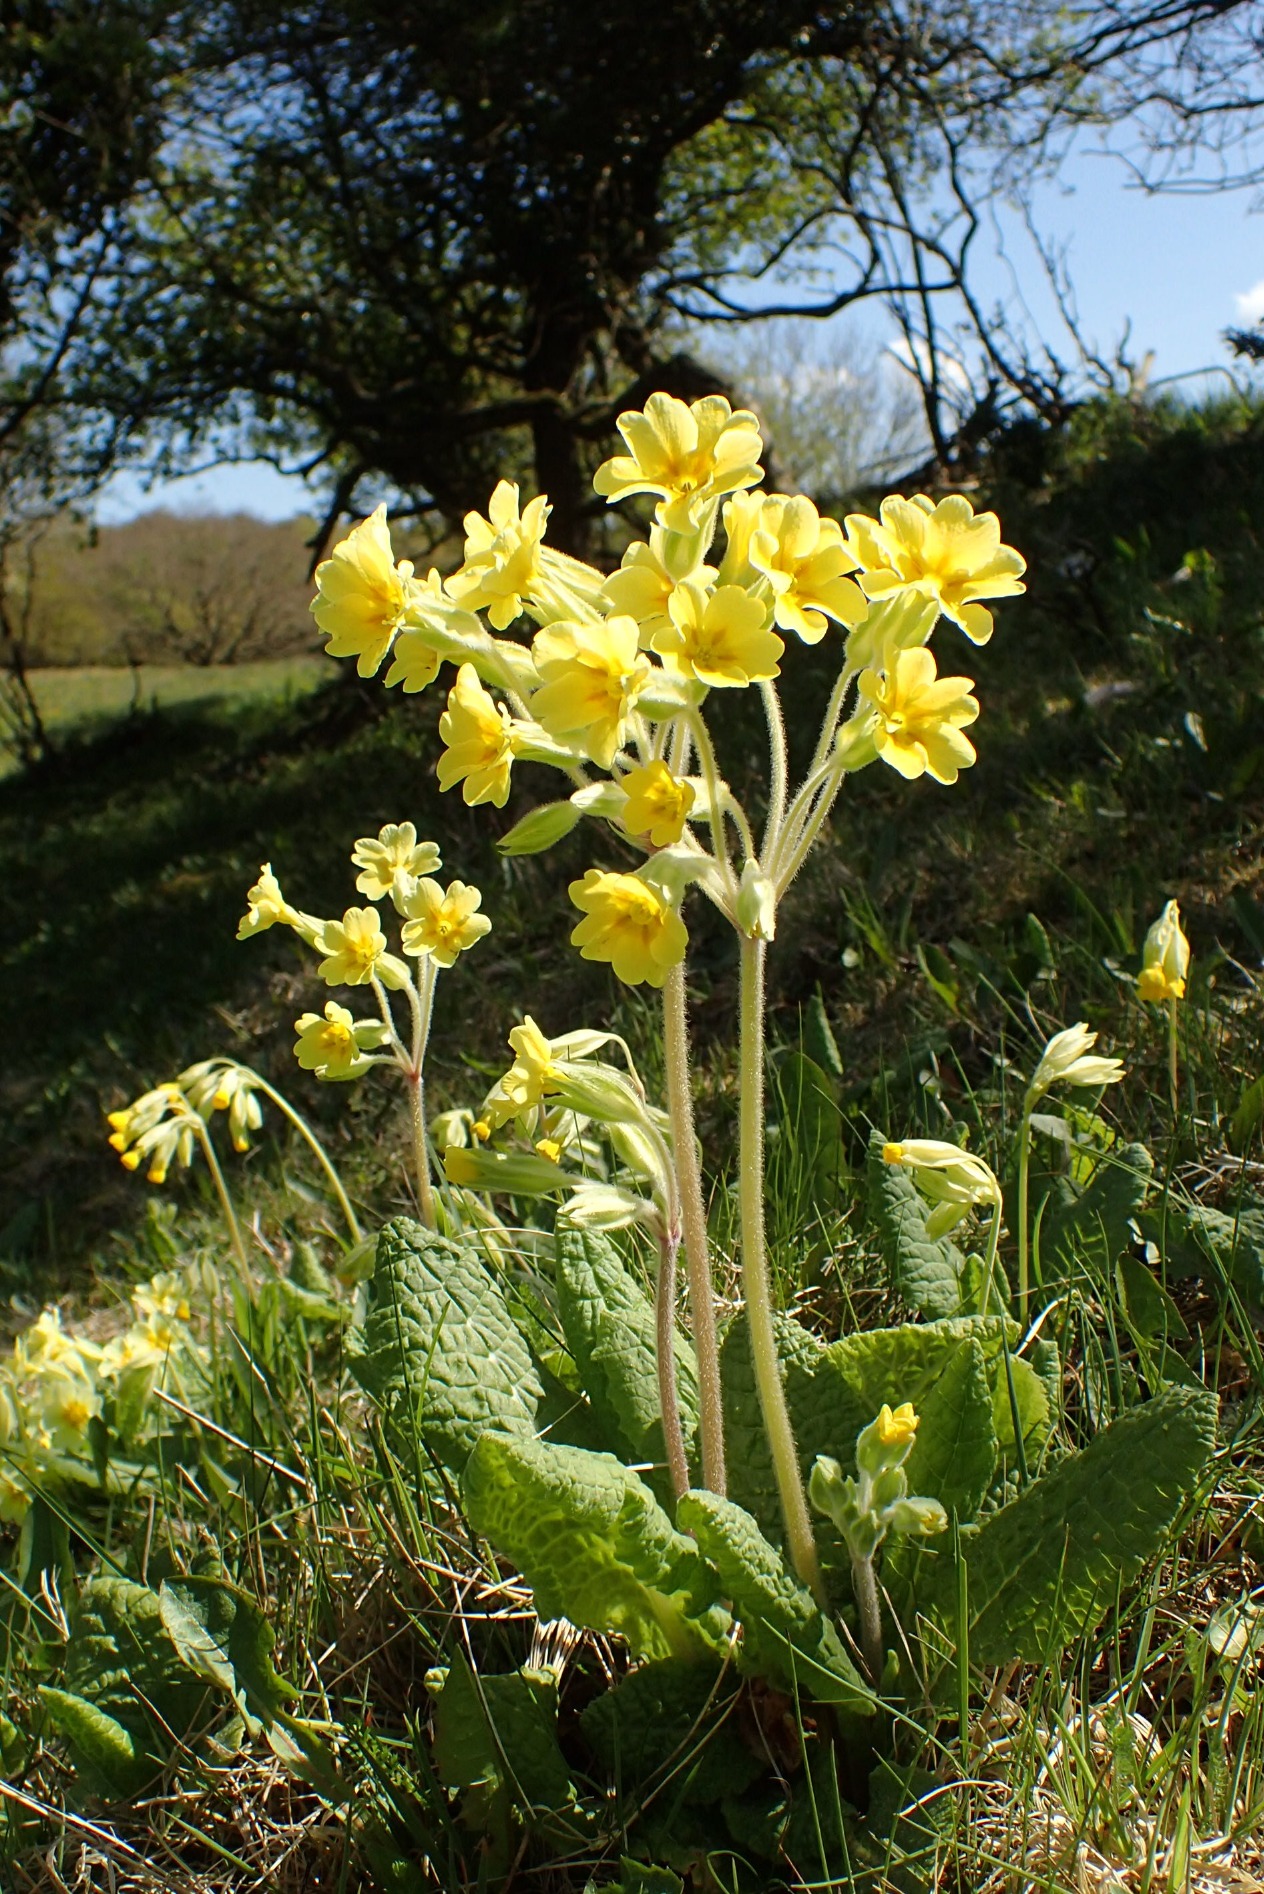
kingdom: Plantae
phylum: Tracheophyta
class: Magnoliopsida
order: Ericales
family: Primulaceae
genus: Primula
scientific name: Primula polyantha
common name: Hulkravet kodriver × storblomstret kodriver
